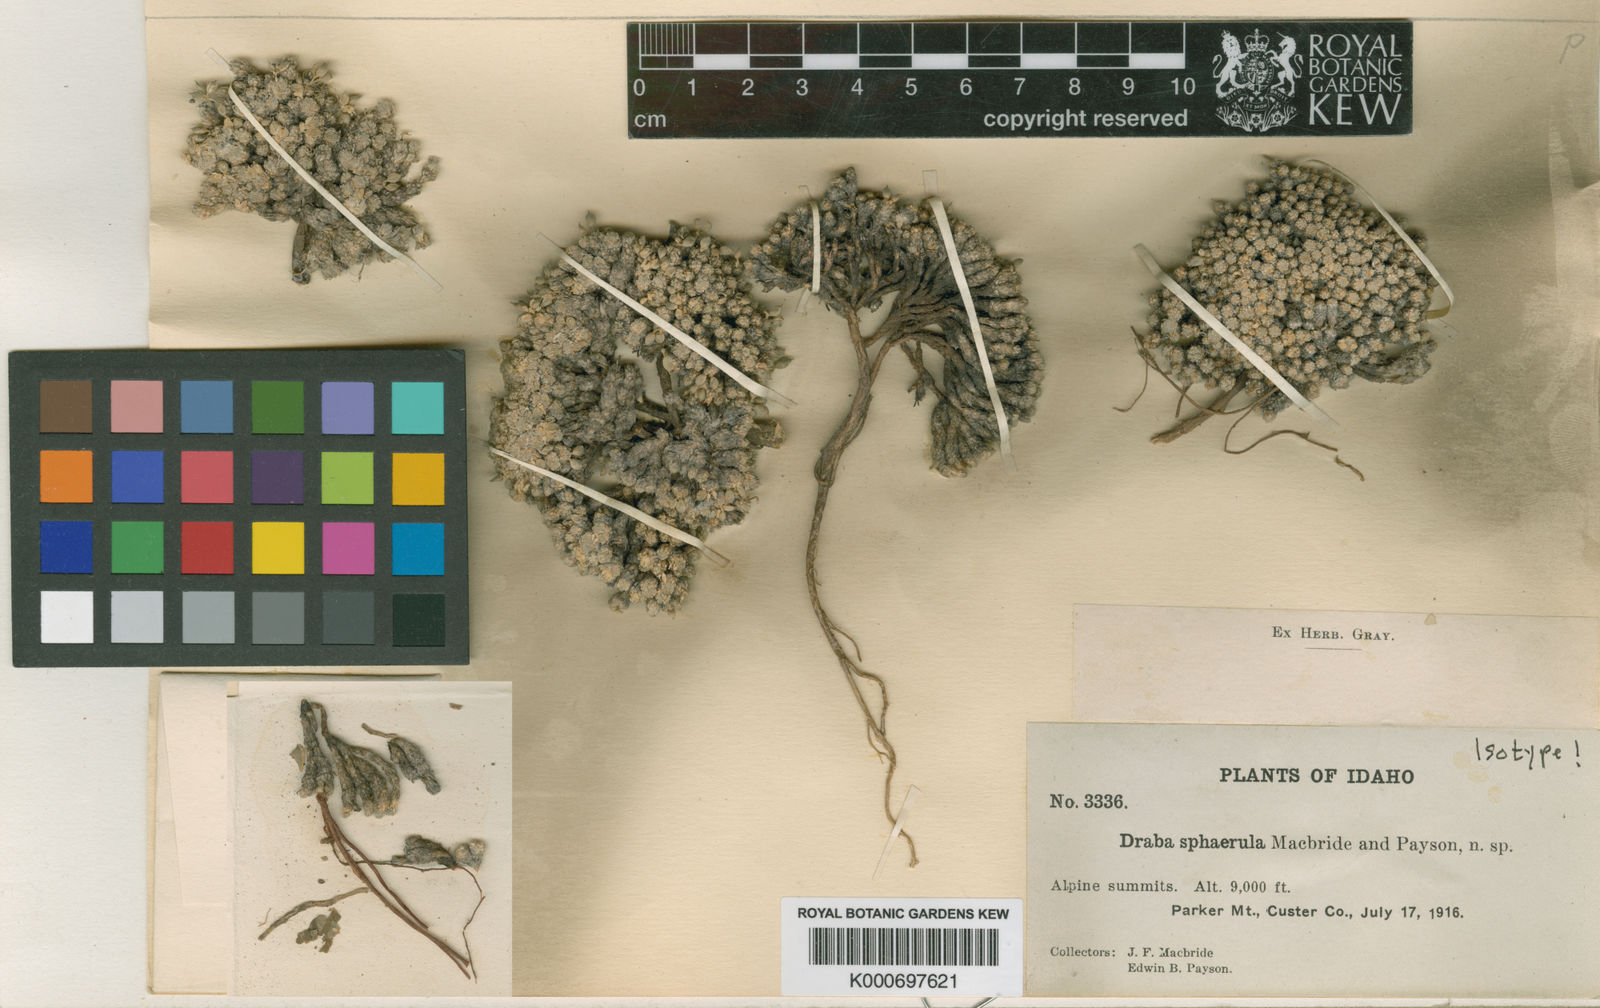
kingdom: Plantae
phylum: Tracheophyta
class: Magnoliopsida
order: Brassicales
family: Brassicaceae
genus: Draba
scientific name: Draba densifolia
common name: Nuttall's draba
